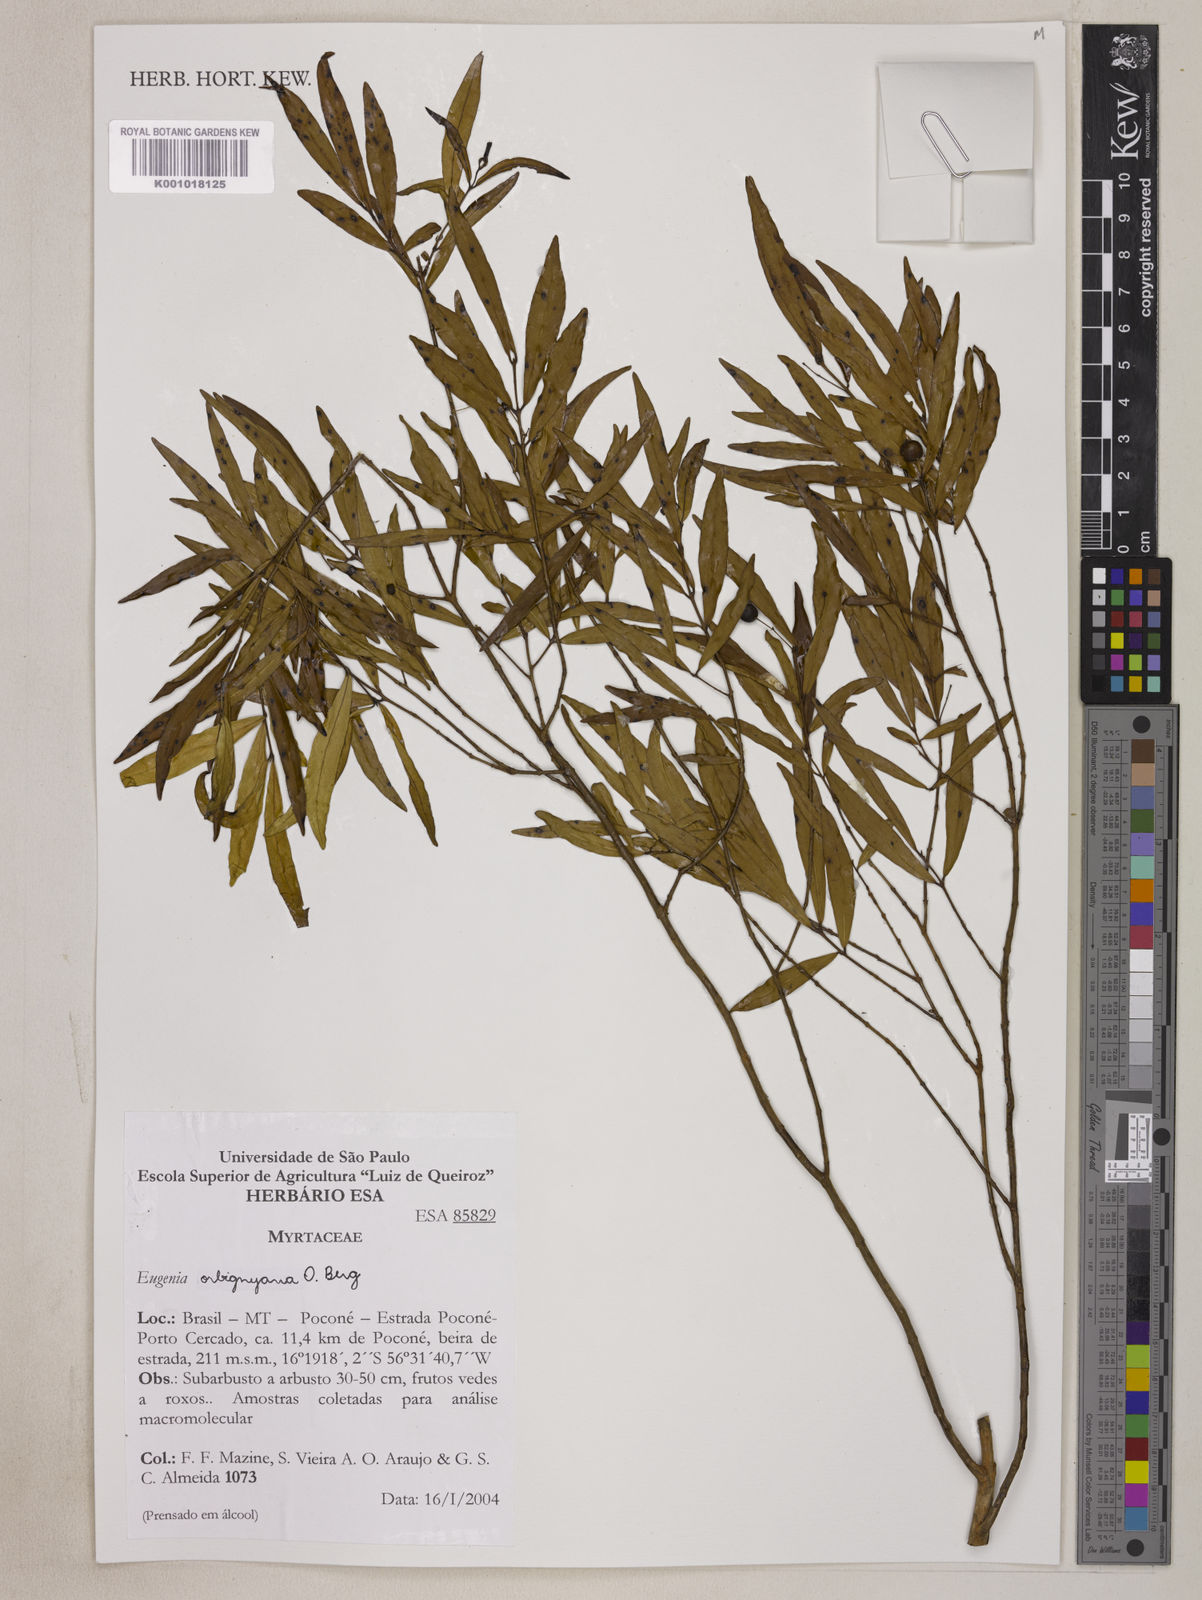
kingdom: Plantae
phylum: Tracheophyta
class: Magnoliopsida
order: Myrtales
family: Myrtaceae
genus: Eugenia
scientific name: Eugenia orbignyana
